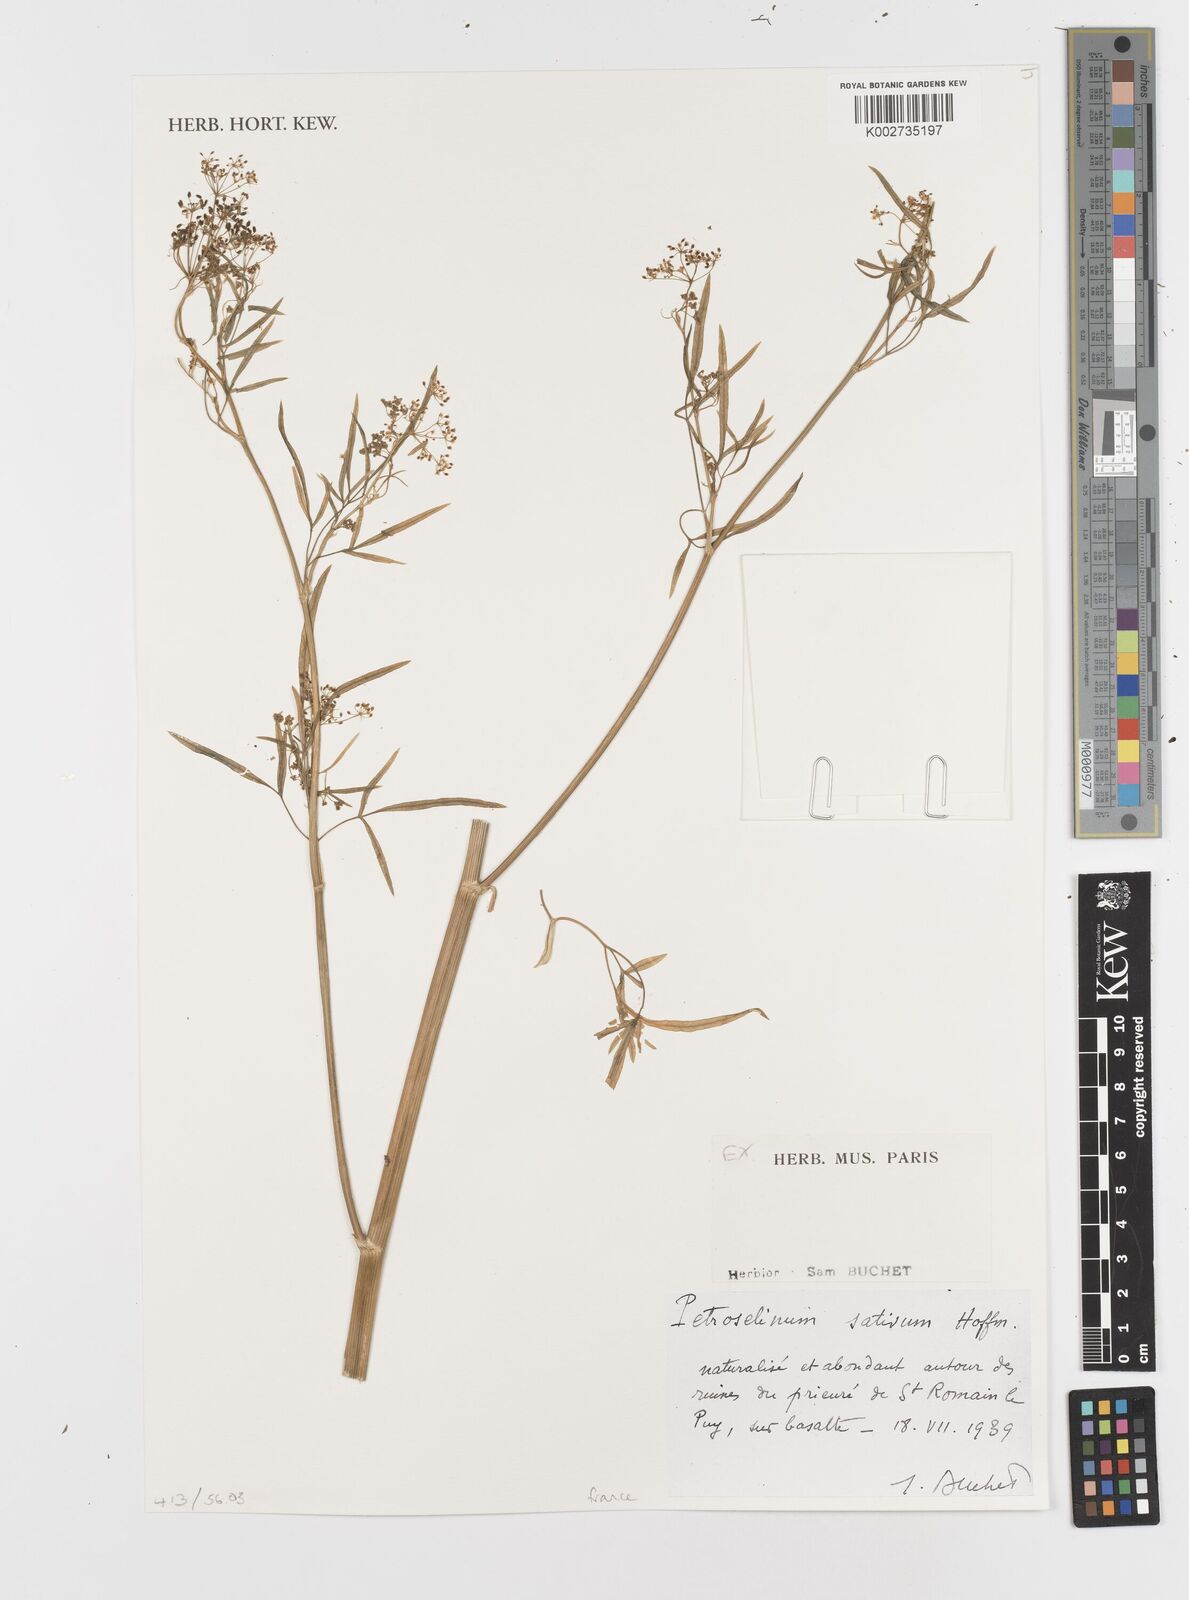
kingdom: Plantae
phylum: Tracheophyta
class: Magnoliopsida
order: Apiales
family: Apiaceae
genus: Petroselinum
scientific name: Petroselinum crispum
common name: Parsley
